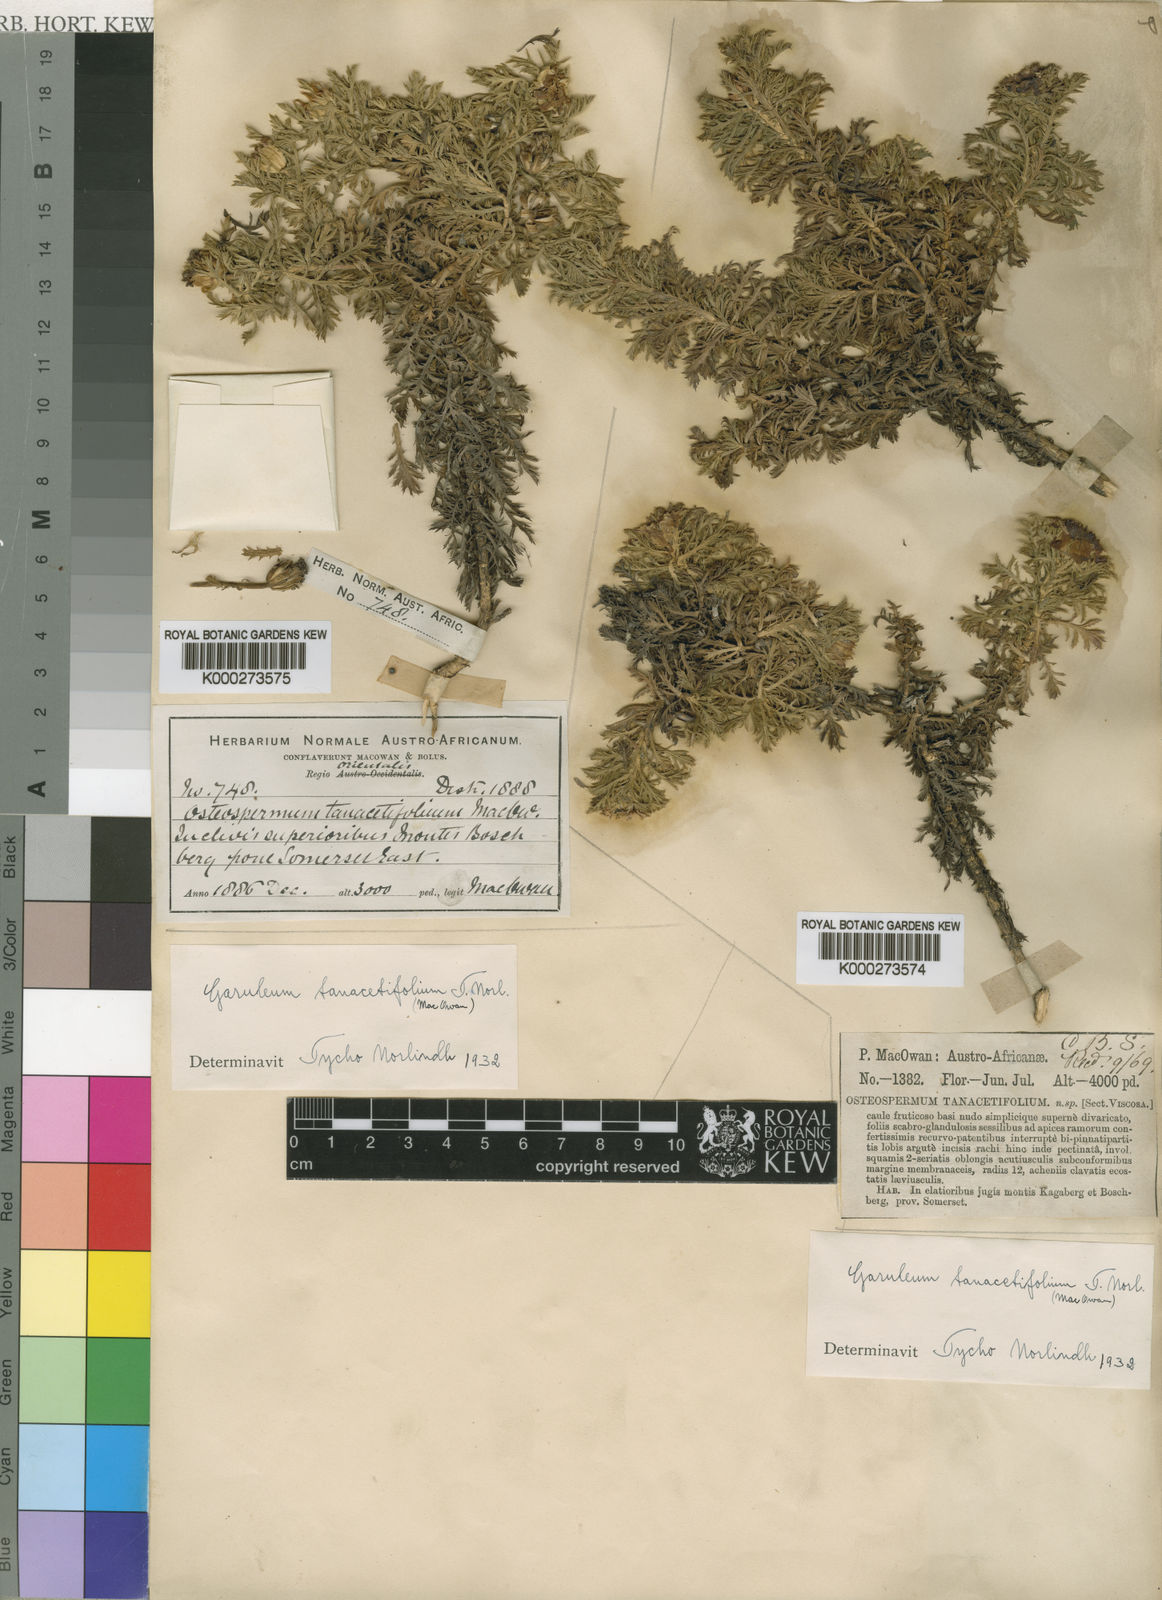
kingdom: Plantae
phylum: Tracheophyta
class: Magnoliopsida
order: Asterales
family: Asteraceae
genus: Garuleum
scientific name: Garuleum tanacetifolium
